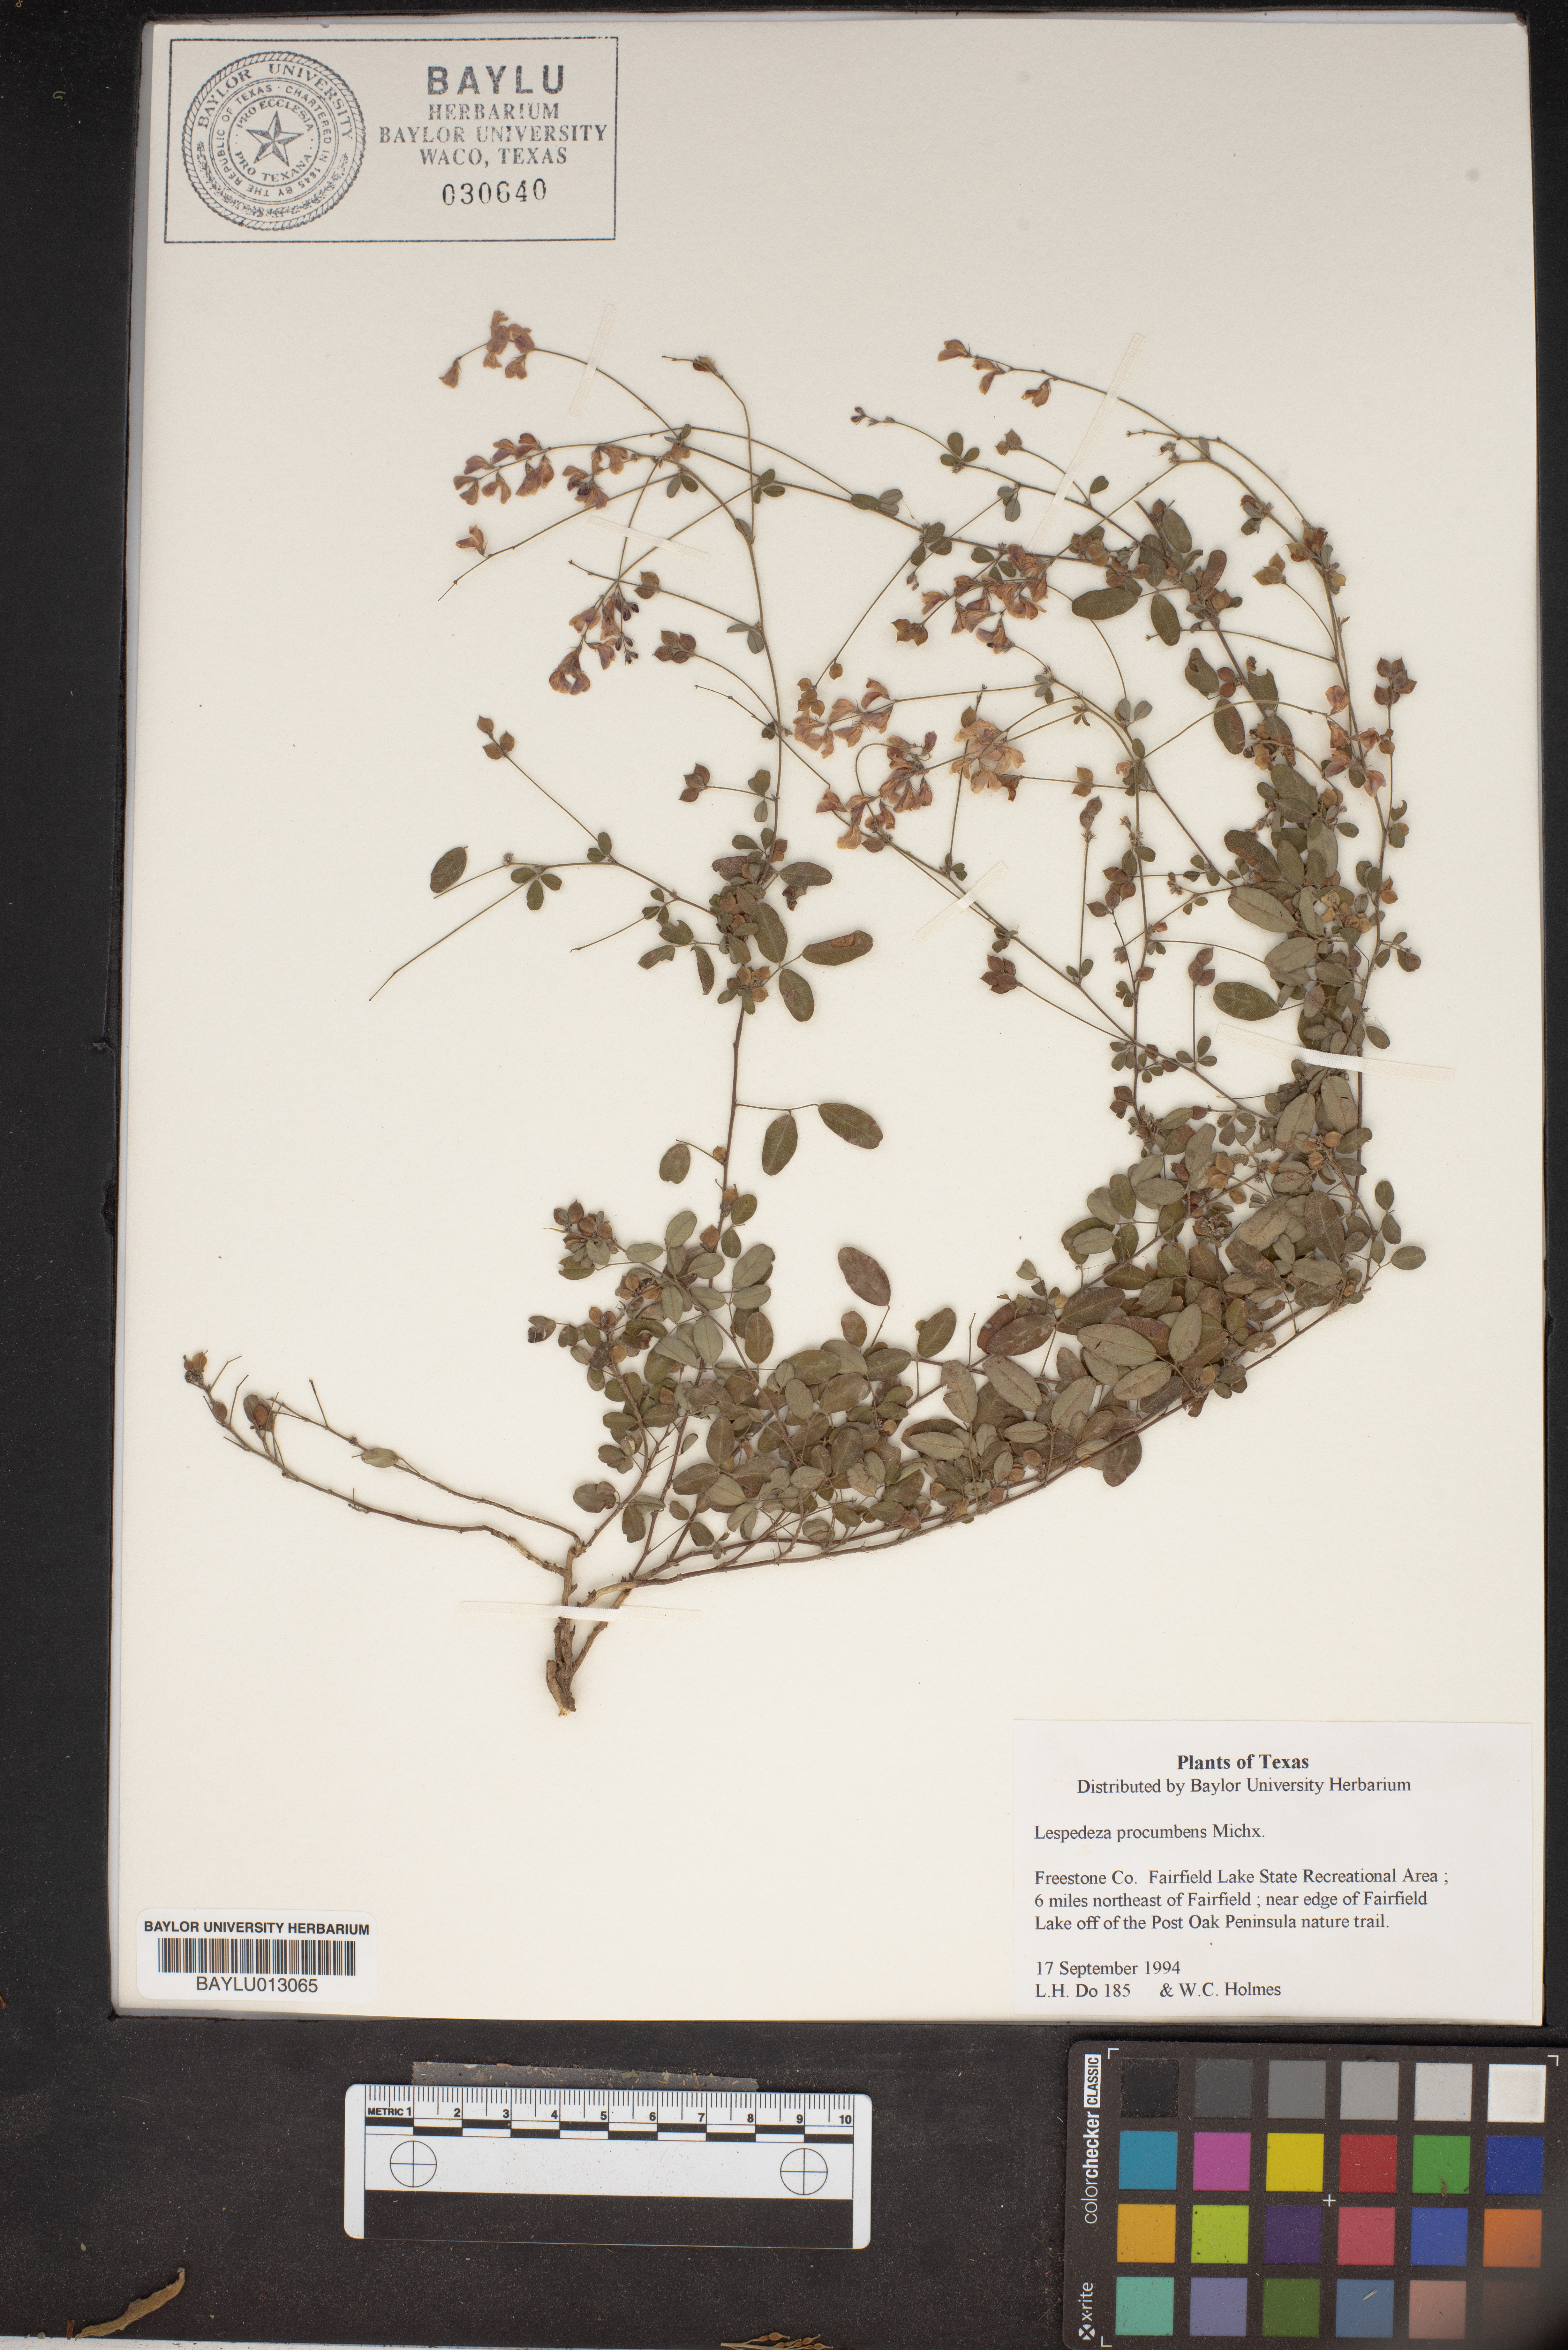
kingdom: Plantae
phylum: Tracheophyta
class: Magnoliopsida
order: Fabales
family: Fabaceae
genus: Lespedeza
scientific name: Lespedeza procumbens
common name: Downy trailing bush-clover
